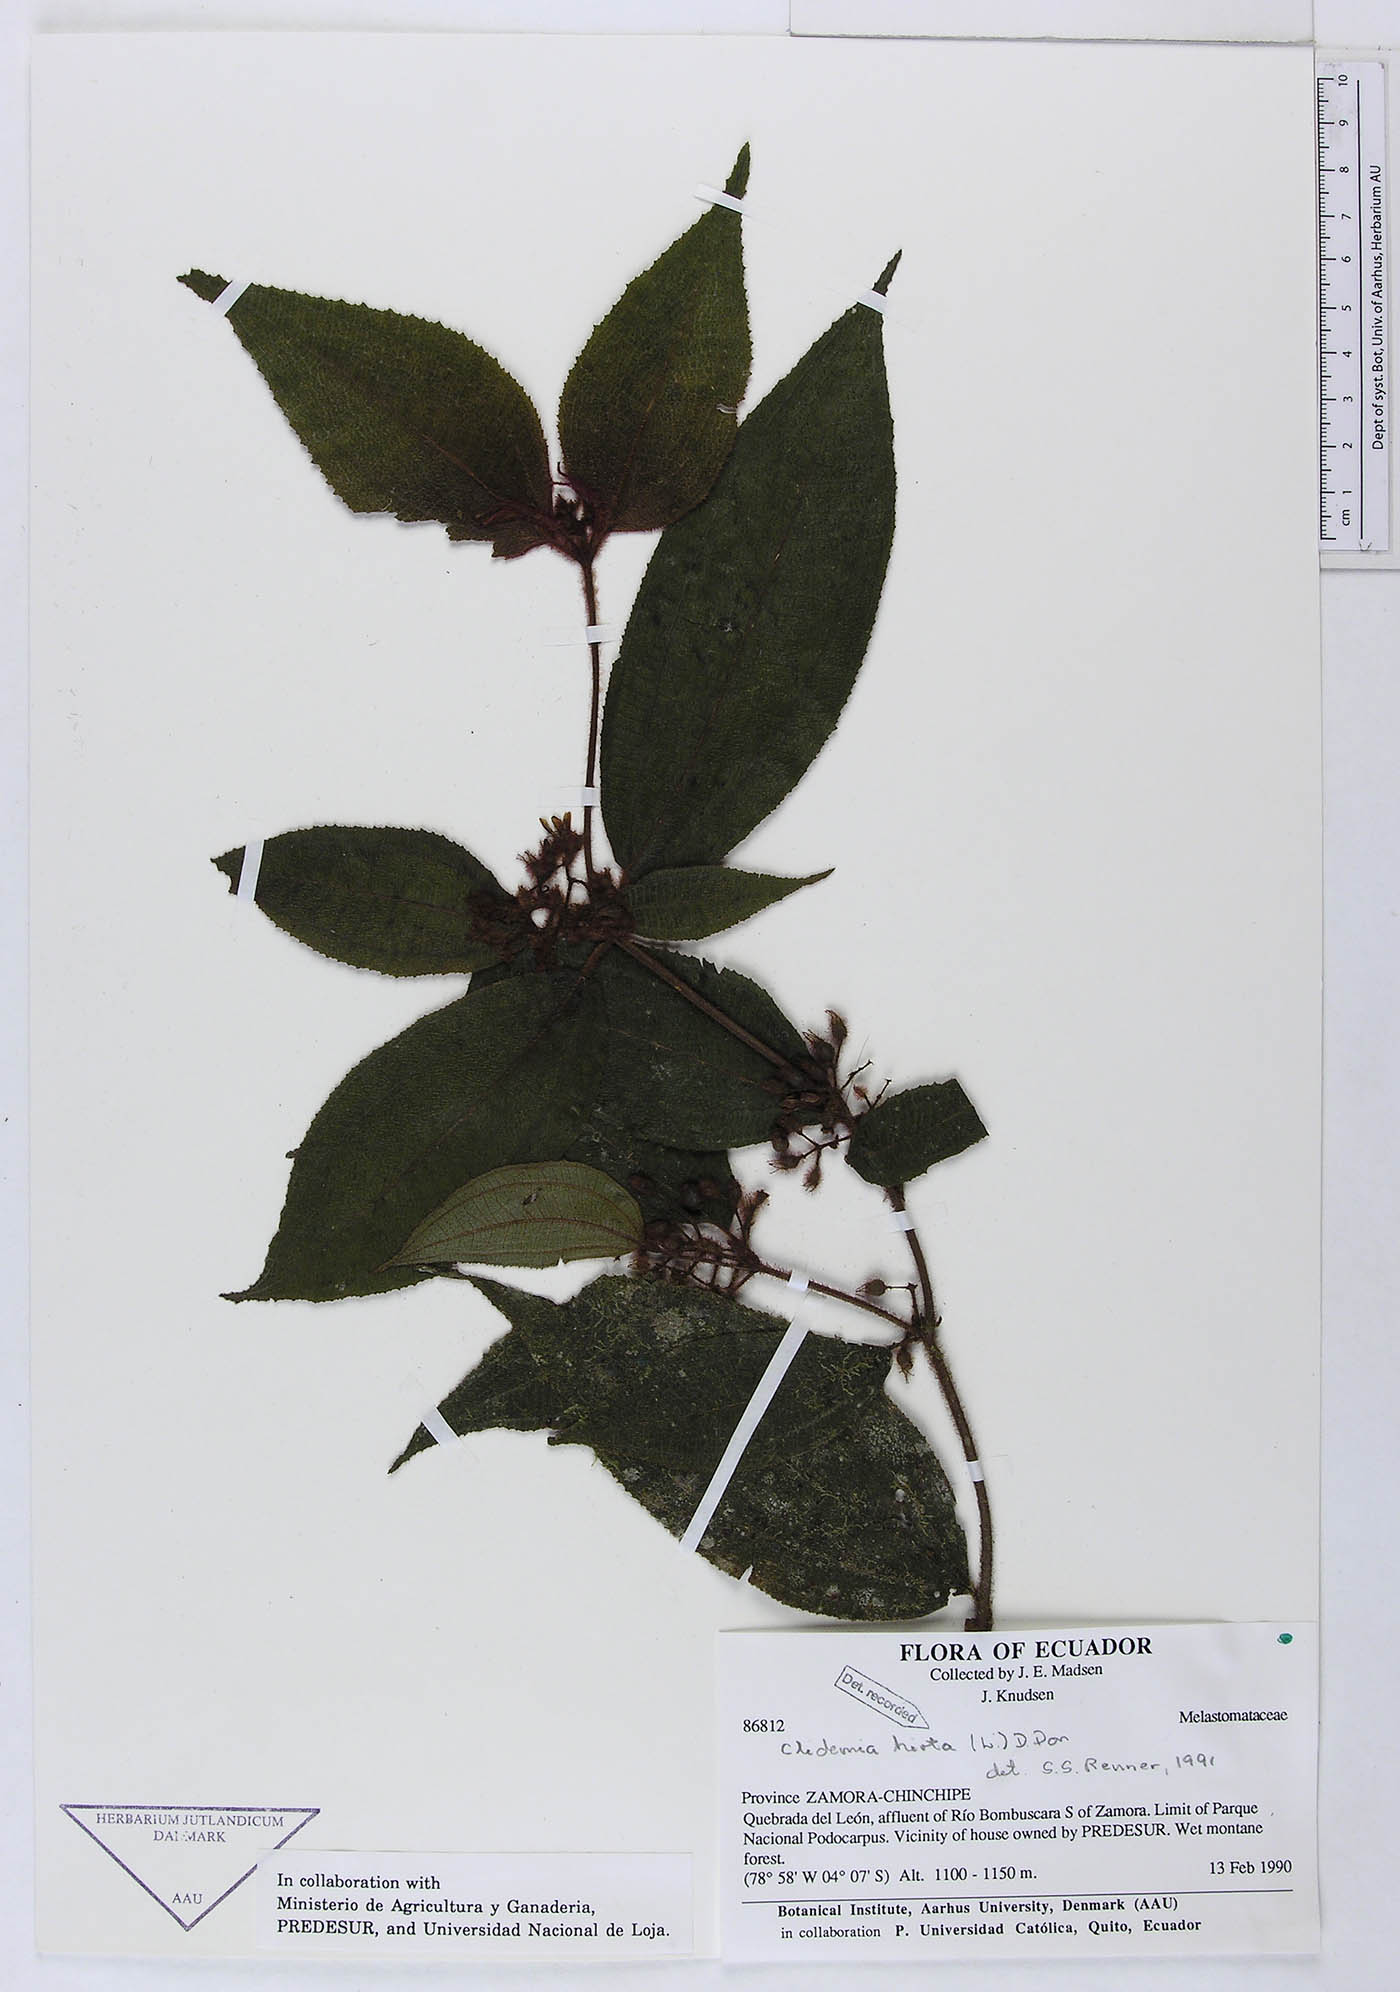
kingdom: Plantae
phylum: Tracheophyta
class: Magnoliopsida
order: Myrtales
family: Melastomataceae
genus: Miconia
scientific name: Miconia crenata
